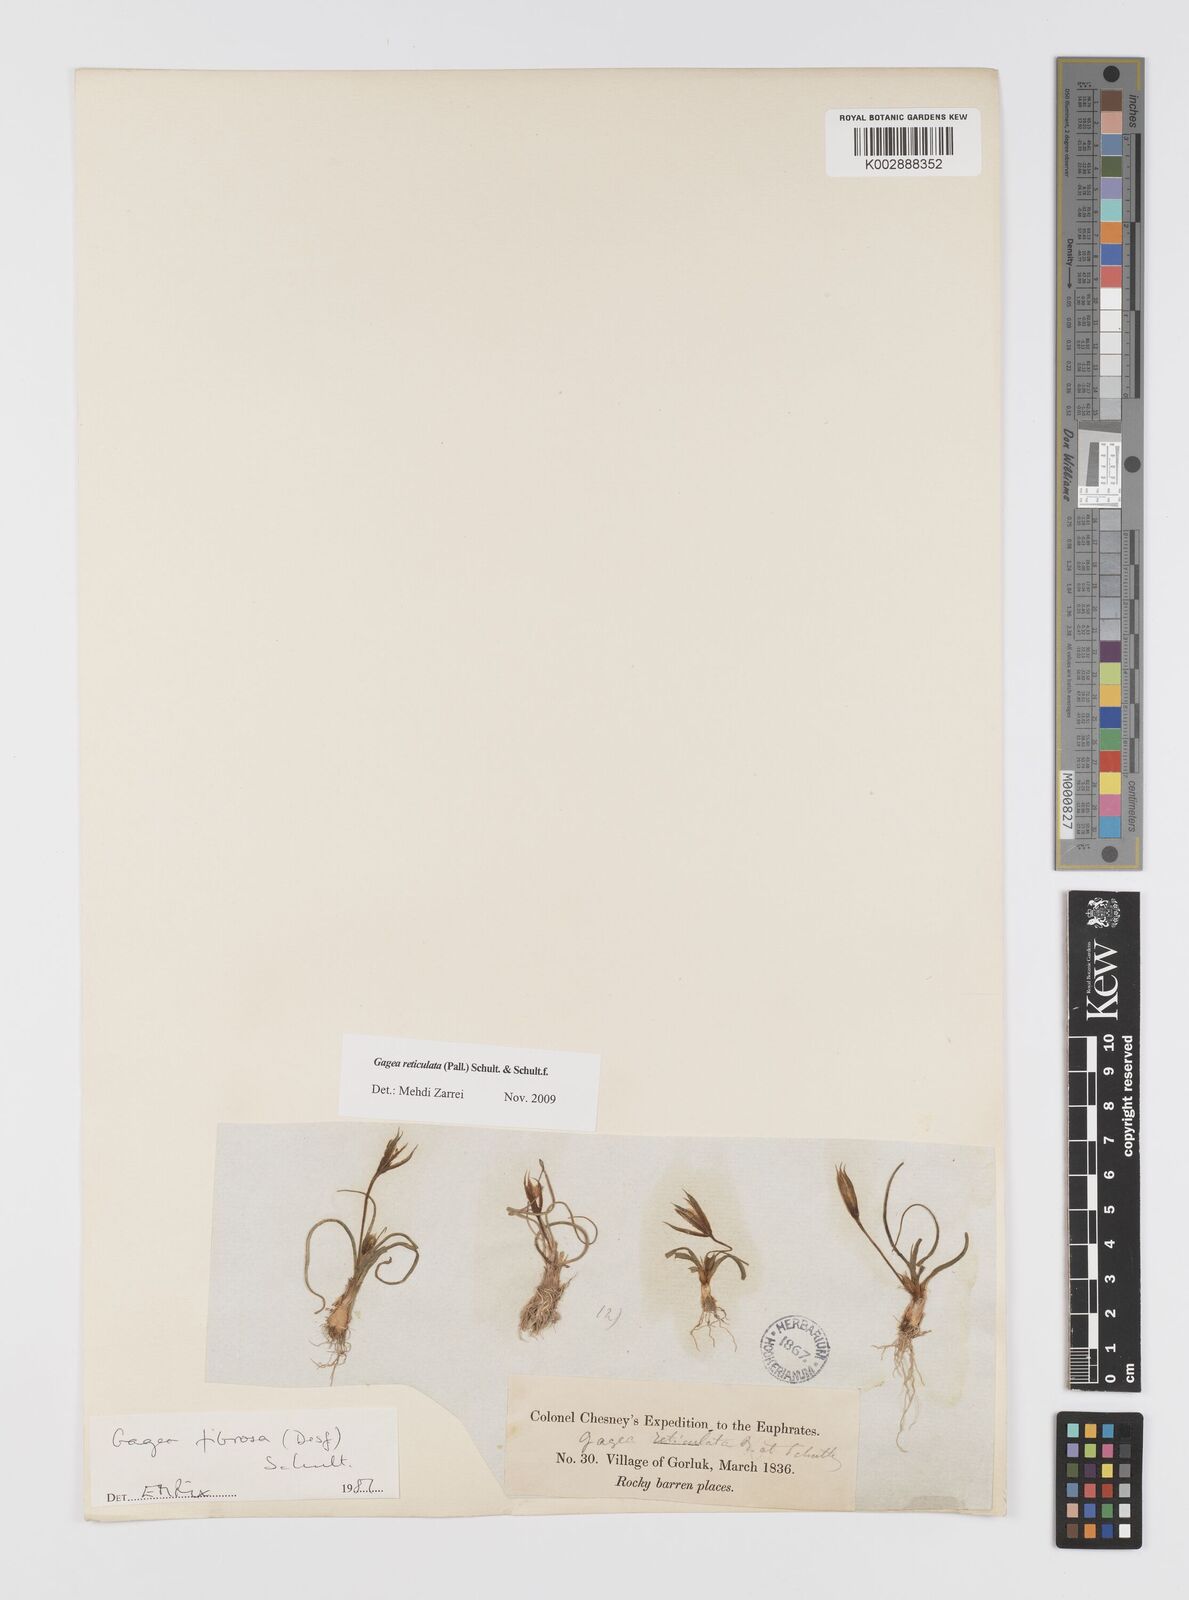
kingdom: Plantae
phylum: Tracheophyta
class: Liliopsida
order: Liliales
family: Liliaceae
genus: Gagea
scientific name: Gagea reticulata
